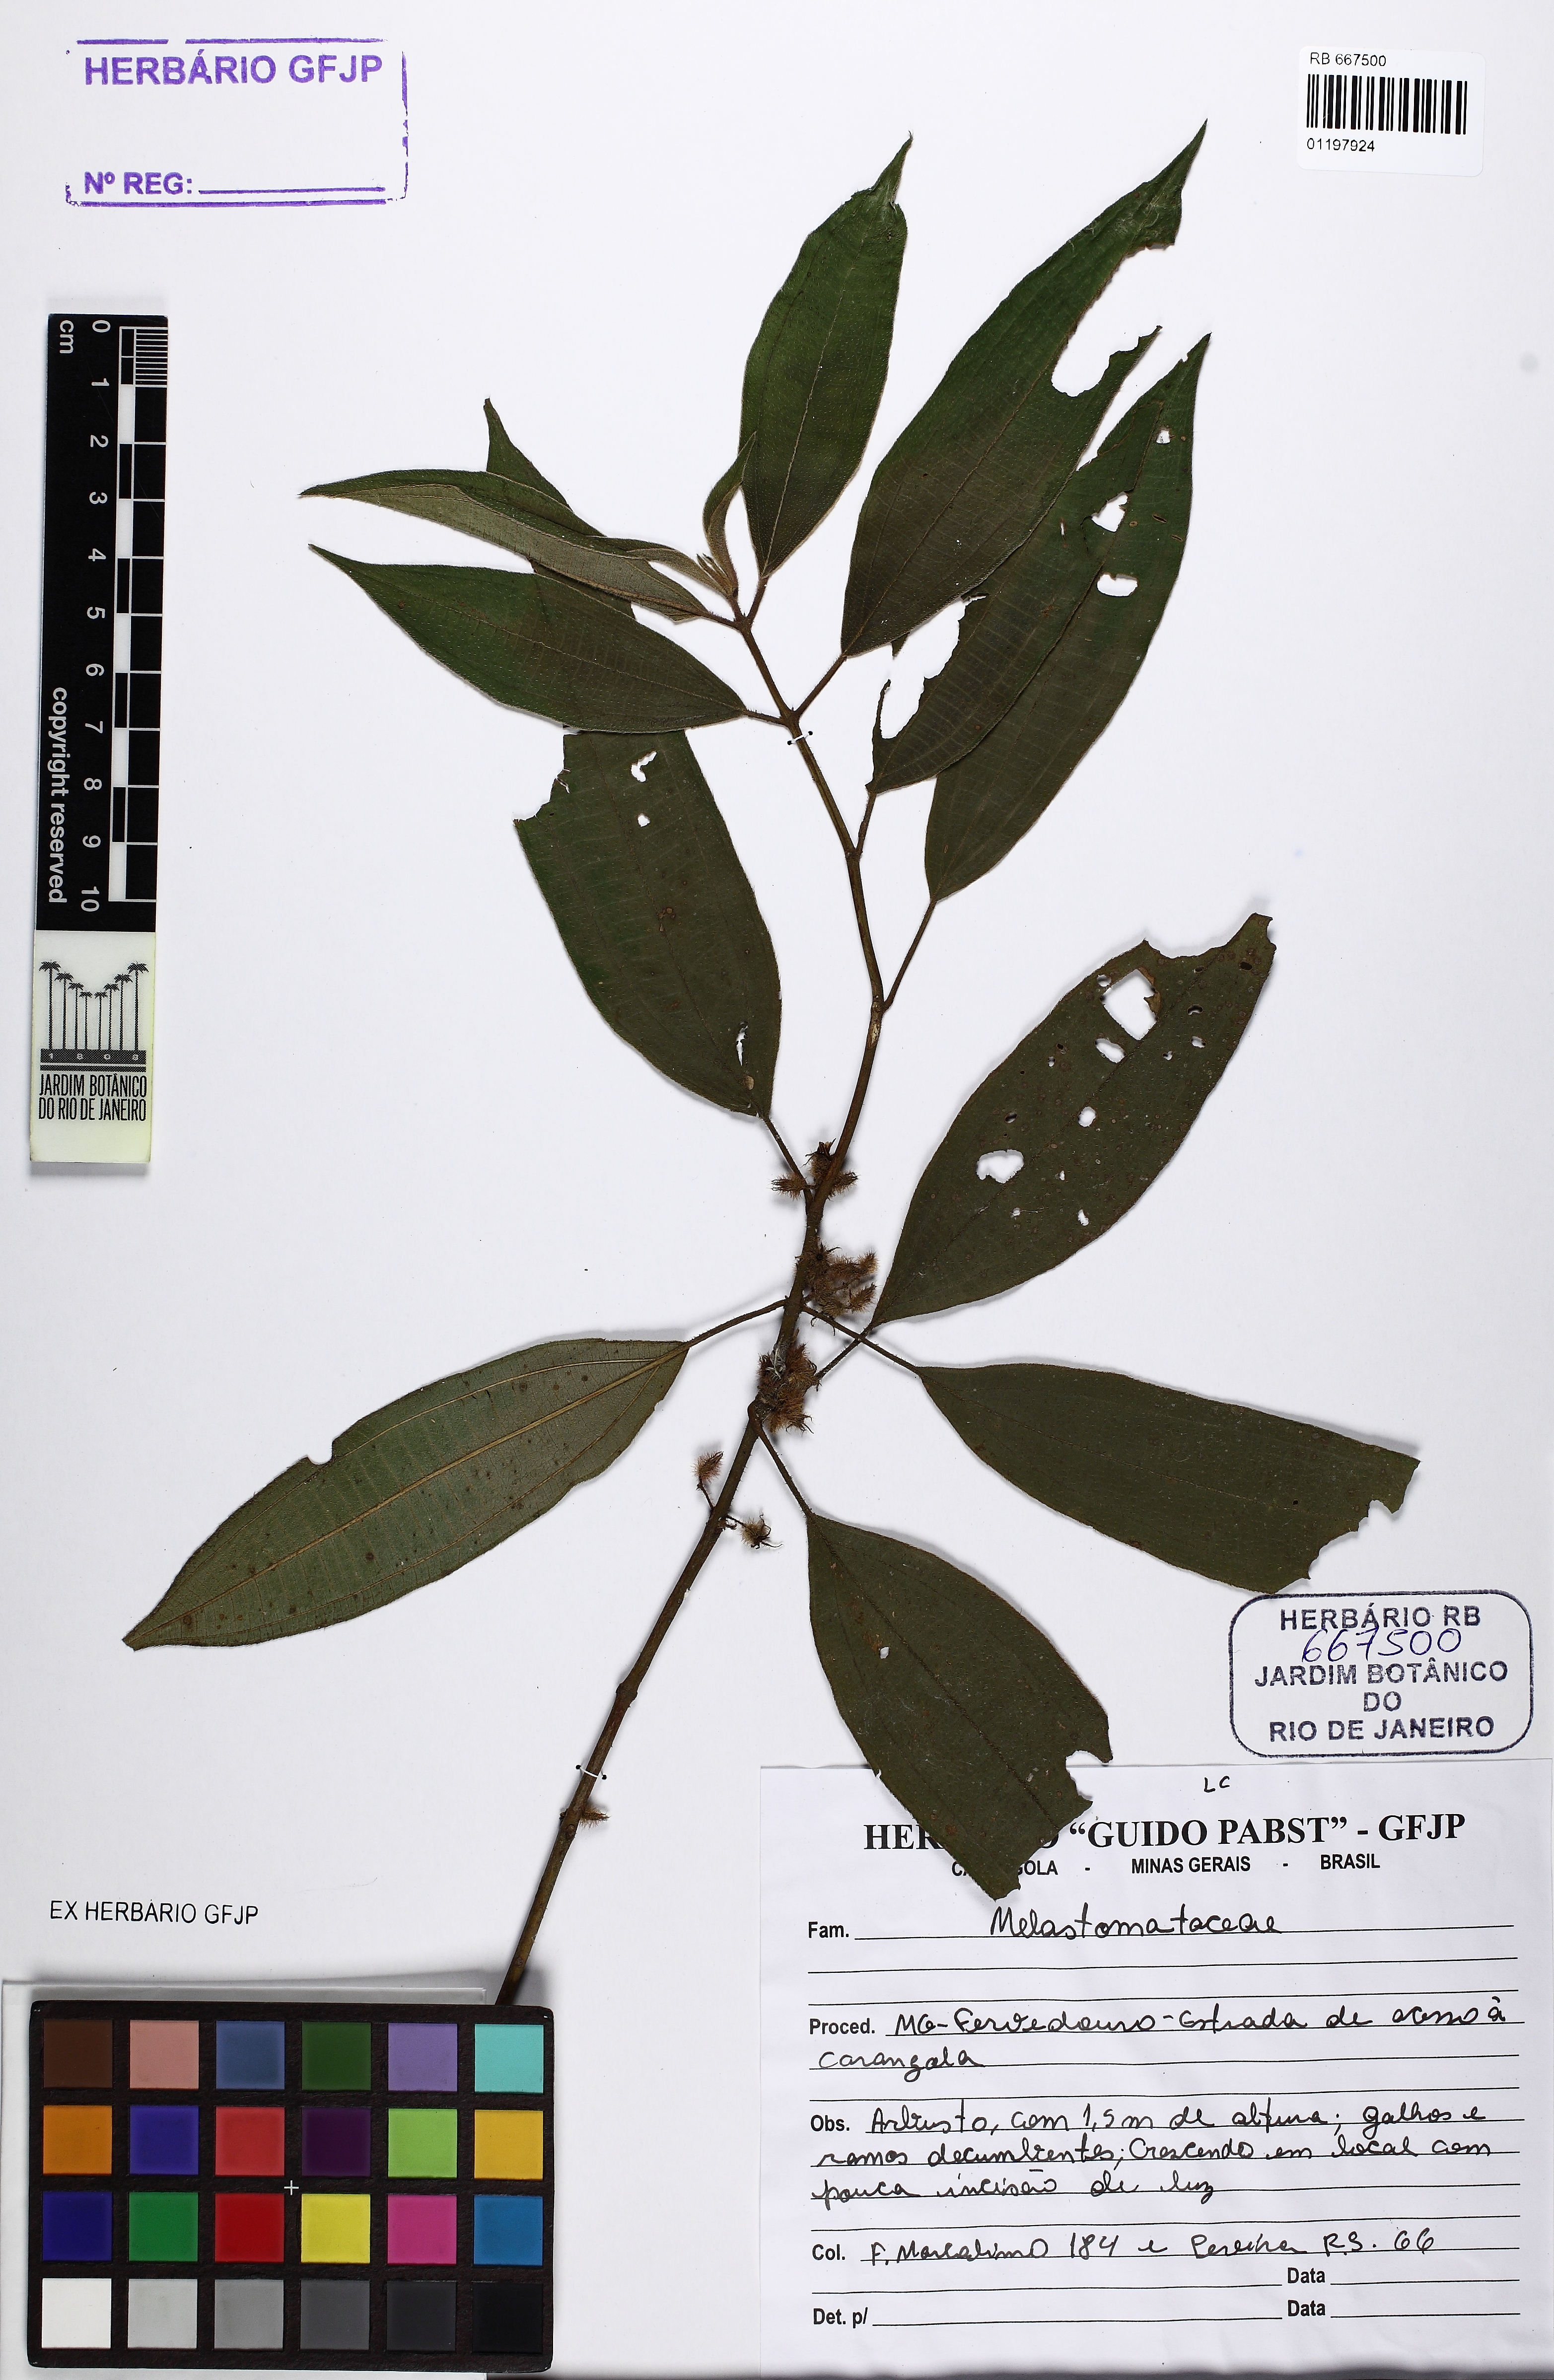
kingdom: Plantae
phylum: Tracheophyta
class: Magnoliopsida
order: Myrtales
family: Melastomataceae
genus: Ossaea
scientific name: Ossaea
